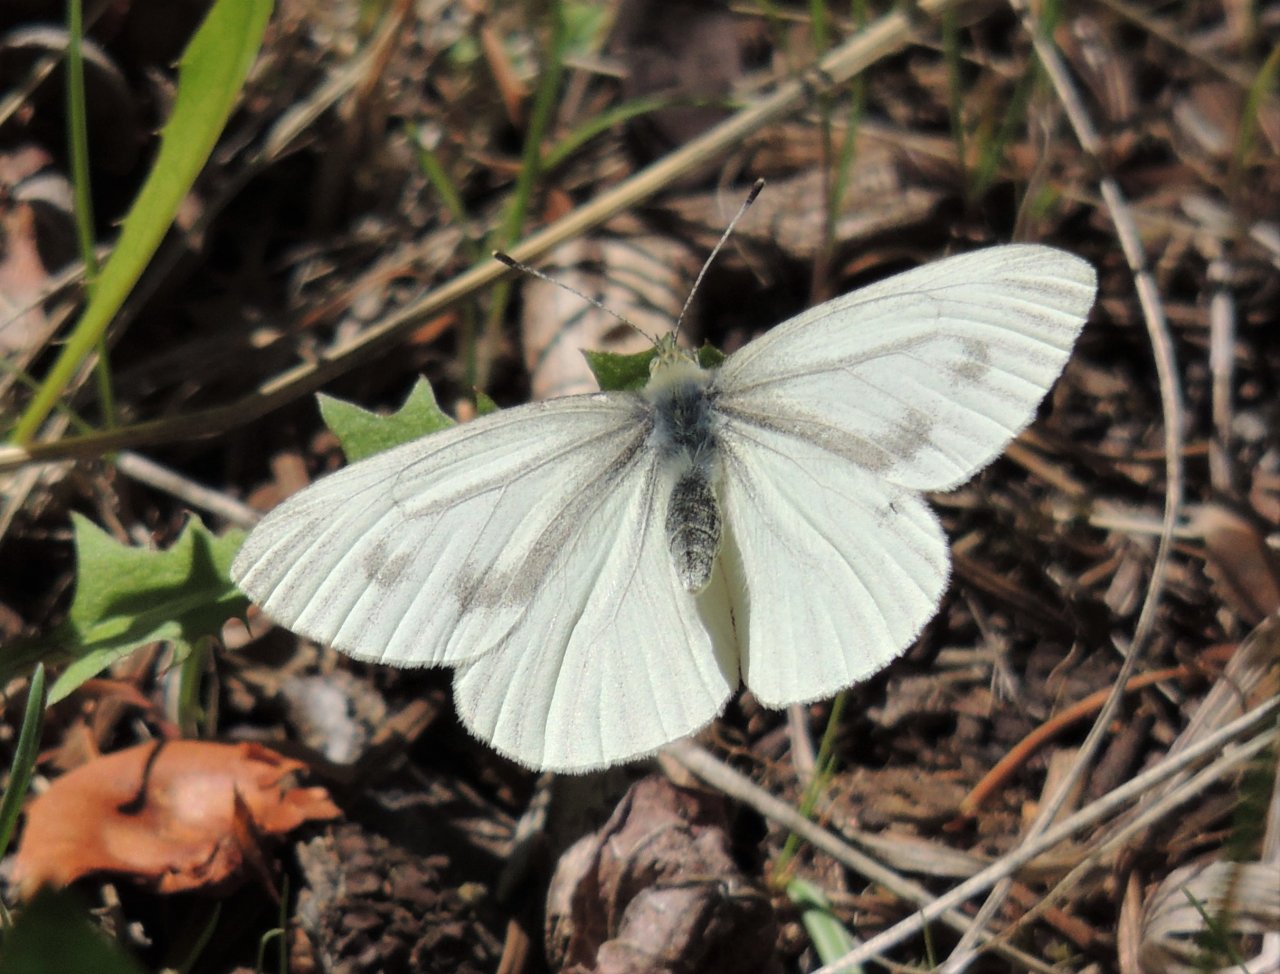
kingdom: Animalia
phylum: Arthropoda
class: Insecta
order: Lepidoptera
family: Pieridae
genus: Pieris
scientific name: Pieris marginalis
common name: Margined White
